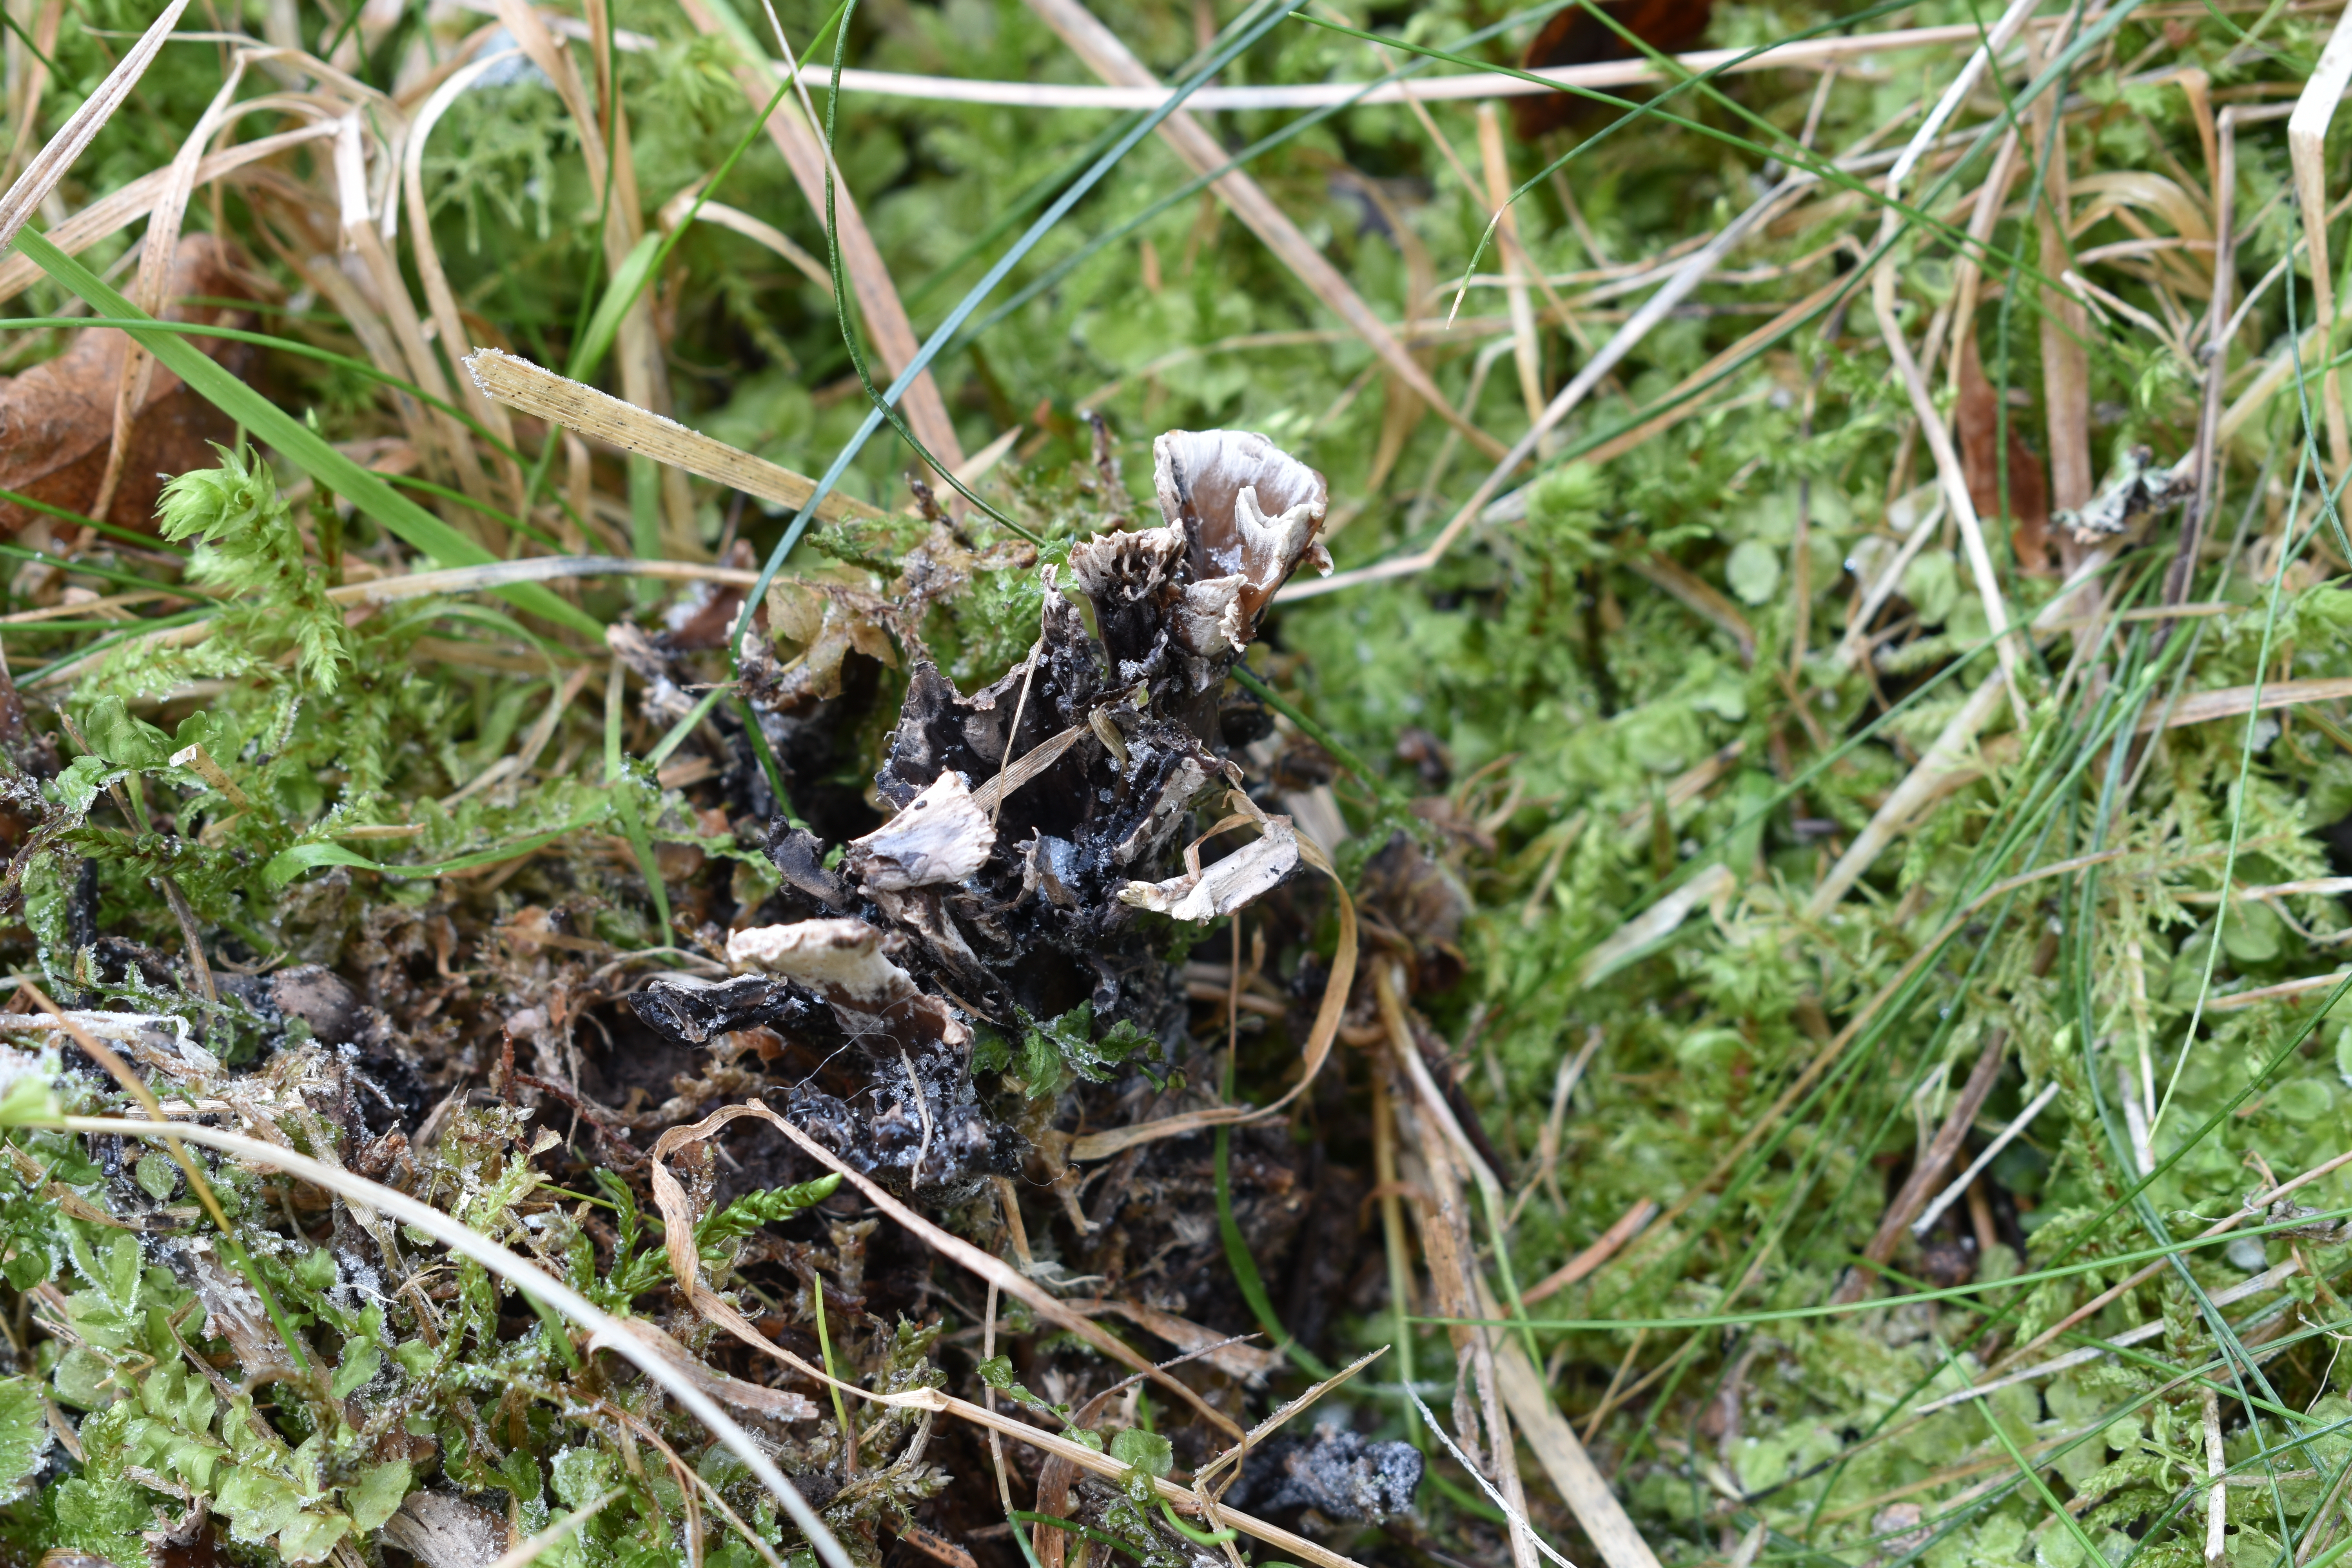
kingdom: Fungi
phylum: Basidiomycota
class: Agaricomycetes
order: Thelephorales
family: Thelephoraceae
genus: Thelephora
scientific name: Thelephora palmata
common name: Stinking earthfan
